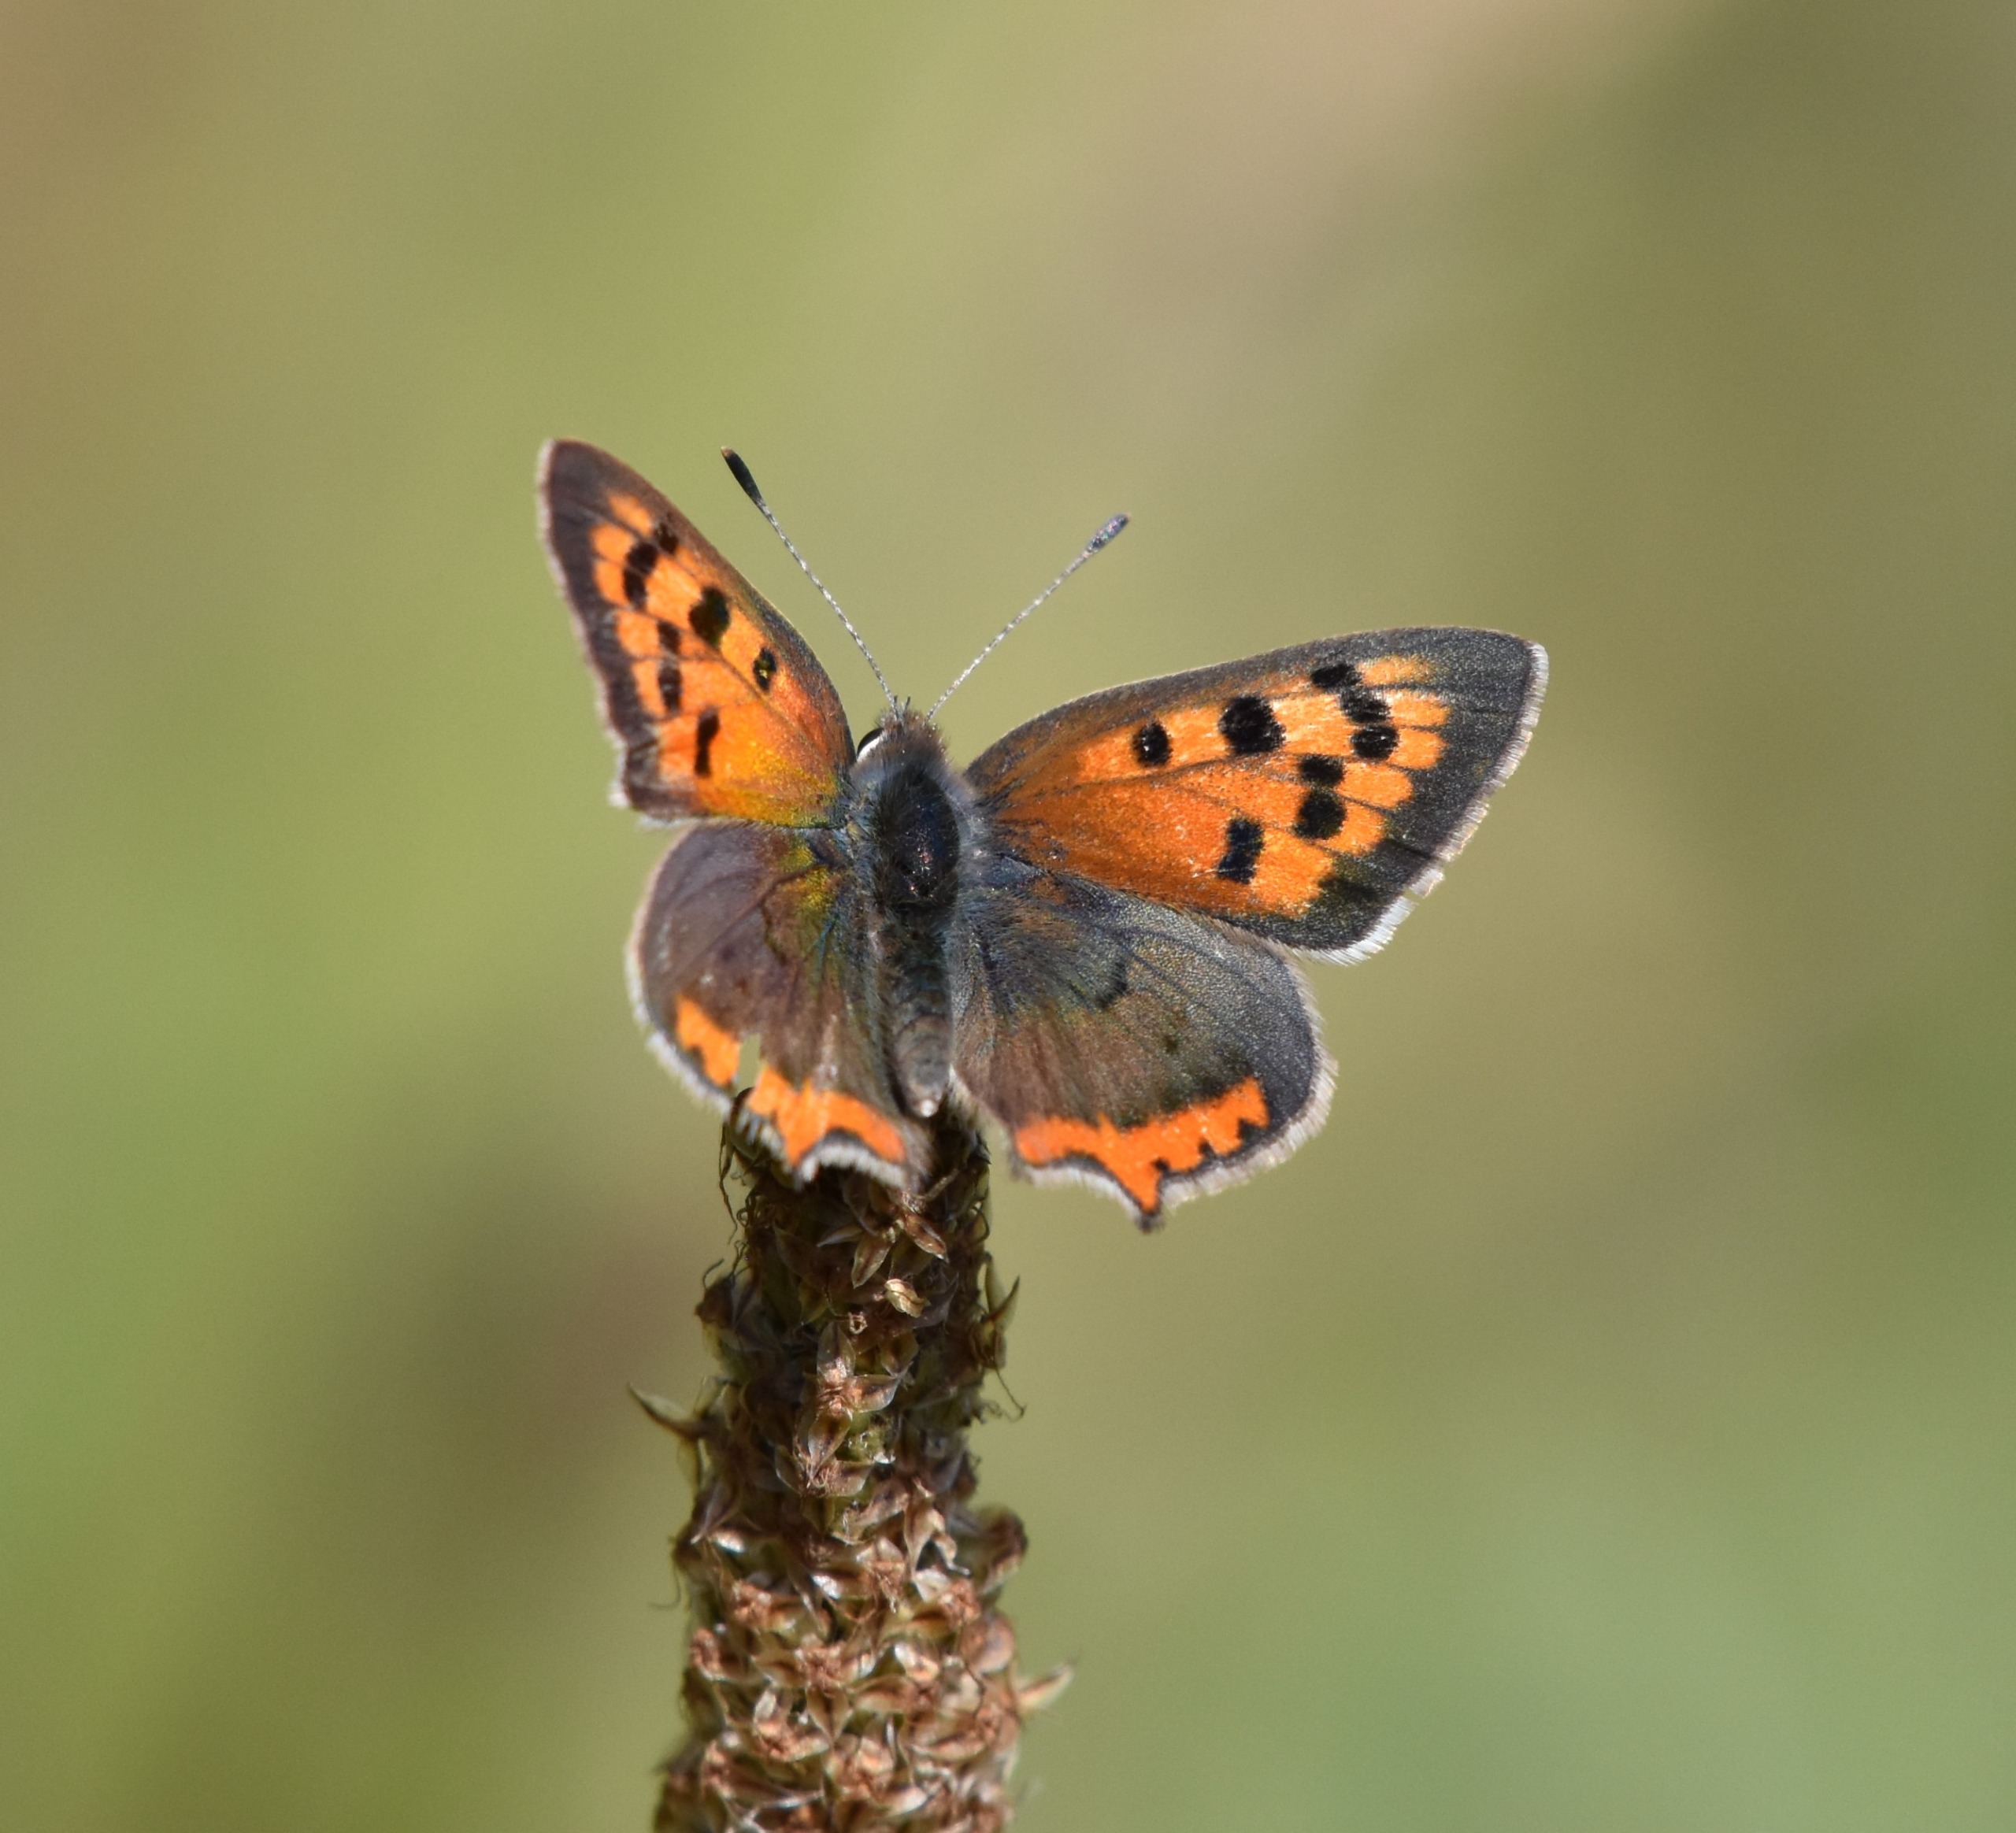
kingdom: Animalia
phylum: Arthropoda
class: Insecta
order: Lepidoptera
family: Lycaenidae
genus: Lycaena
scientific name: Lycaena phlaeas
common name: Lille ildfugl
